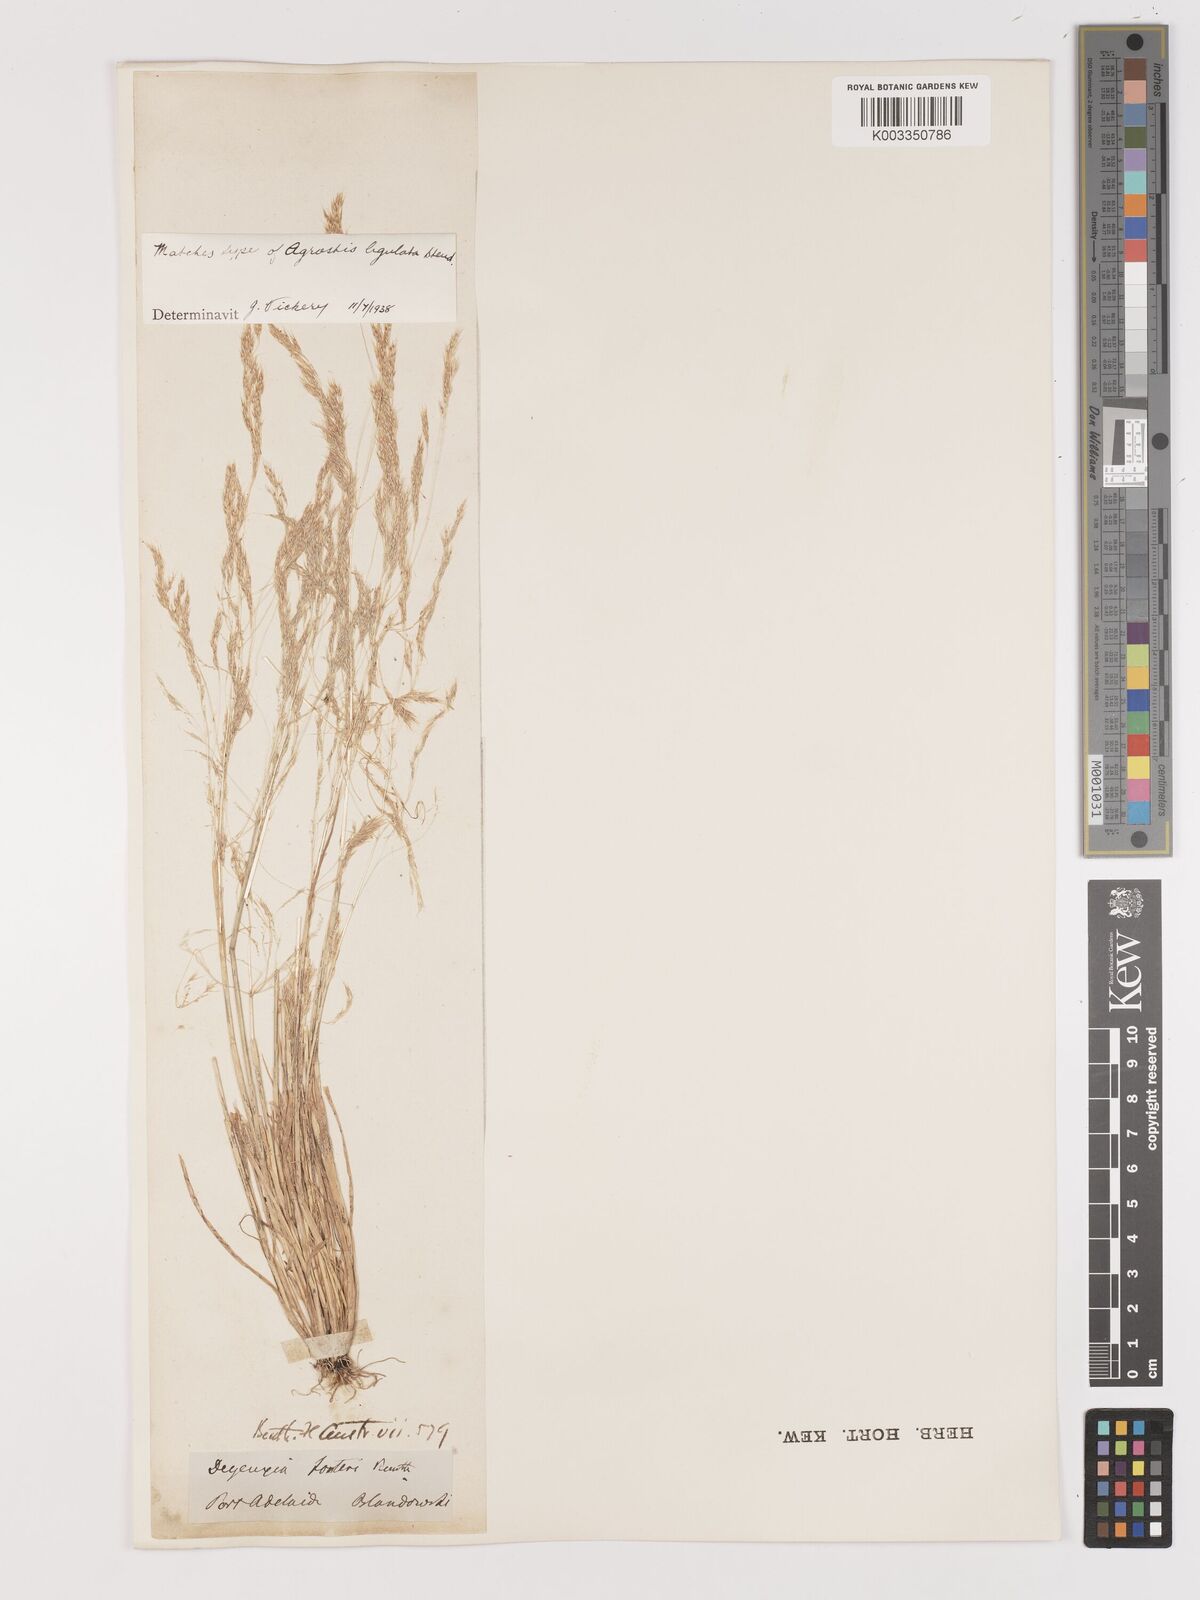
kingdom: Plantae
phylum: Tracheophyta
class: Liliopsida
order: Poales
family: Poaceae
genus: Lachnagrostis
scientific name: Lachnagrostis filiformis
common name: Bentgrass
